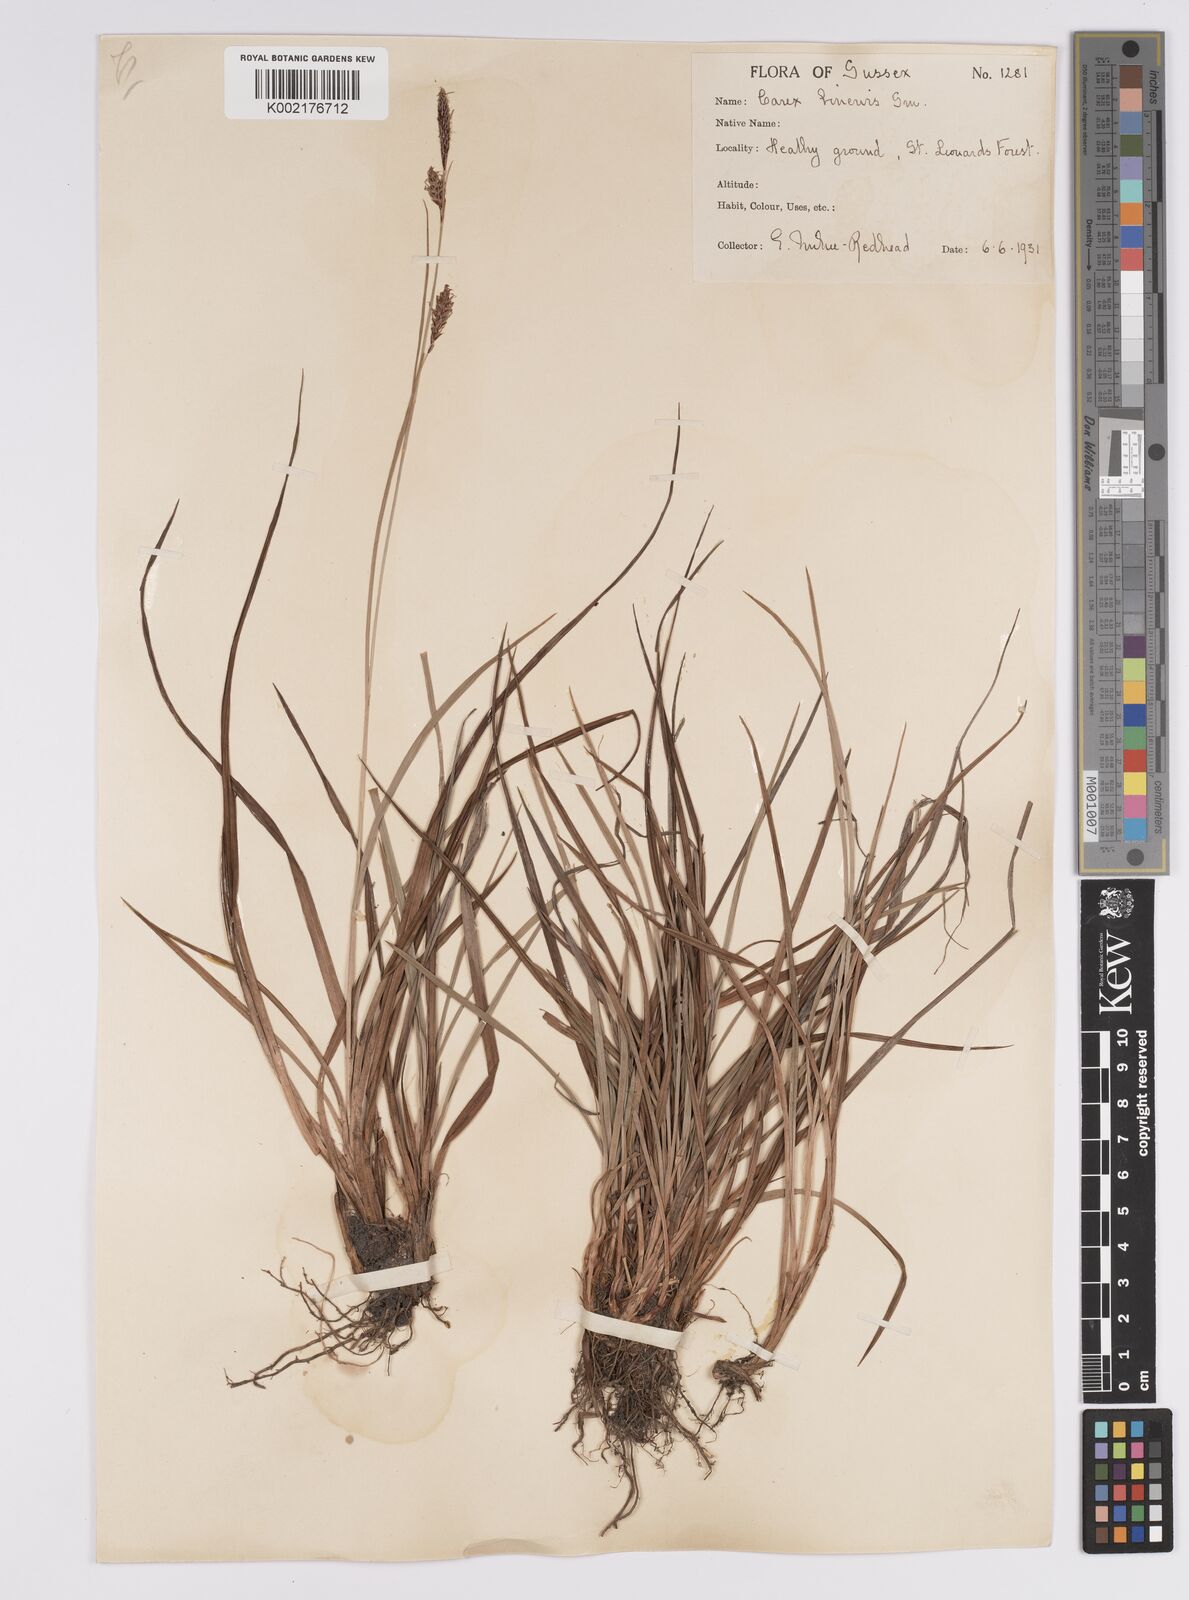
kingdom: Plantae
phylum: Tracheophyta
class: Liliopsida
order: Poales
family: Cyperaceae
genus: Carex
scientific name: Carex binervis
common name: Green-ribbed sedge
